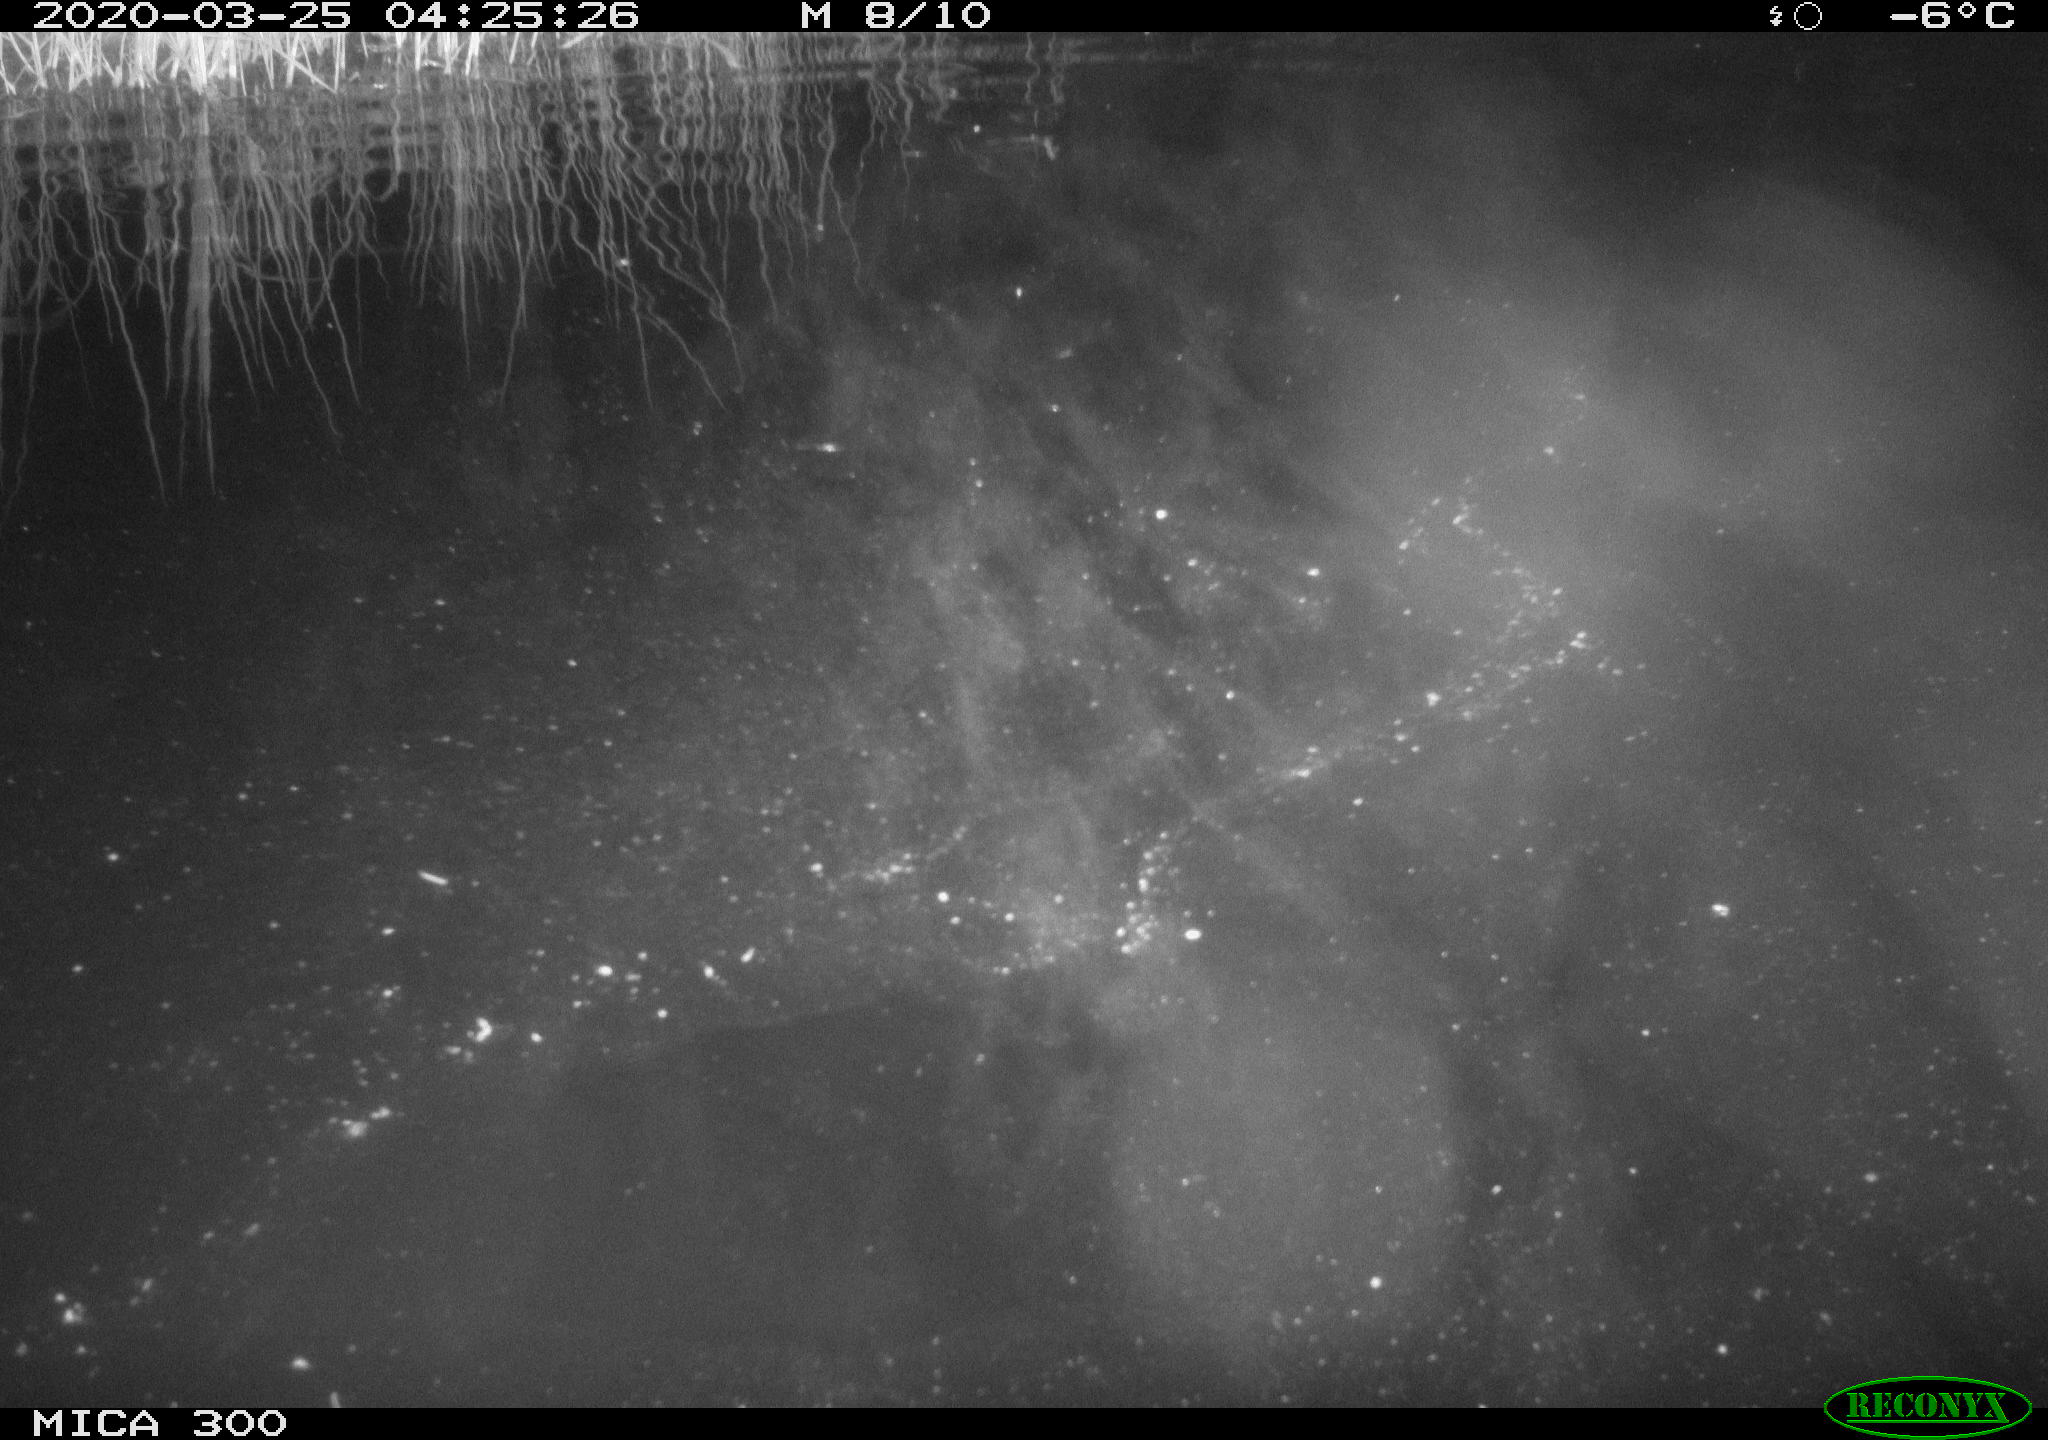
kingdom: Animalia
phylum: Chordata
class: Mammalia
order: Rodentia
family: Castoridae
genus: Castor
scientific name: Castor fiber
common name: Eurasian beaver
